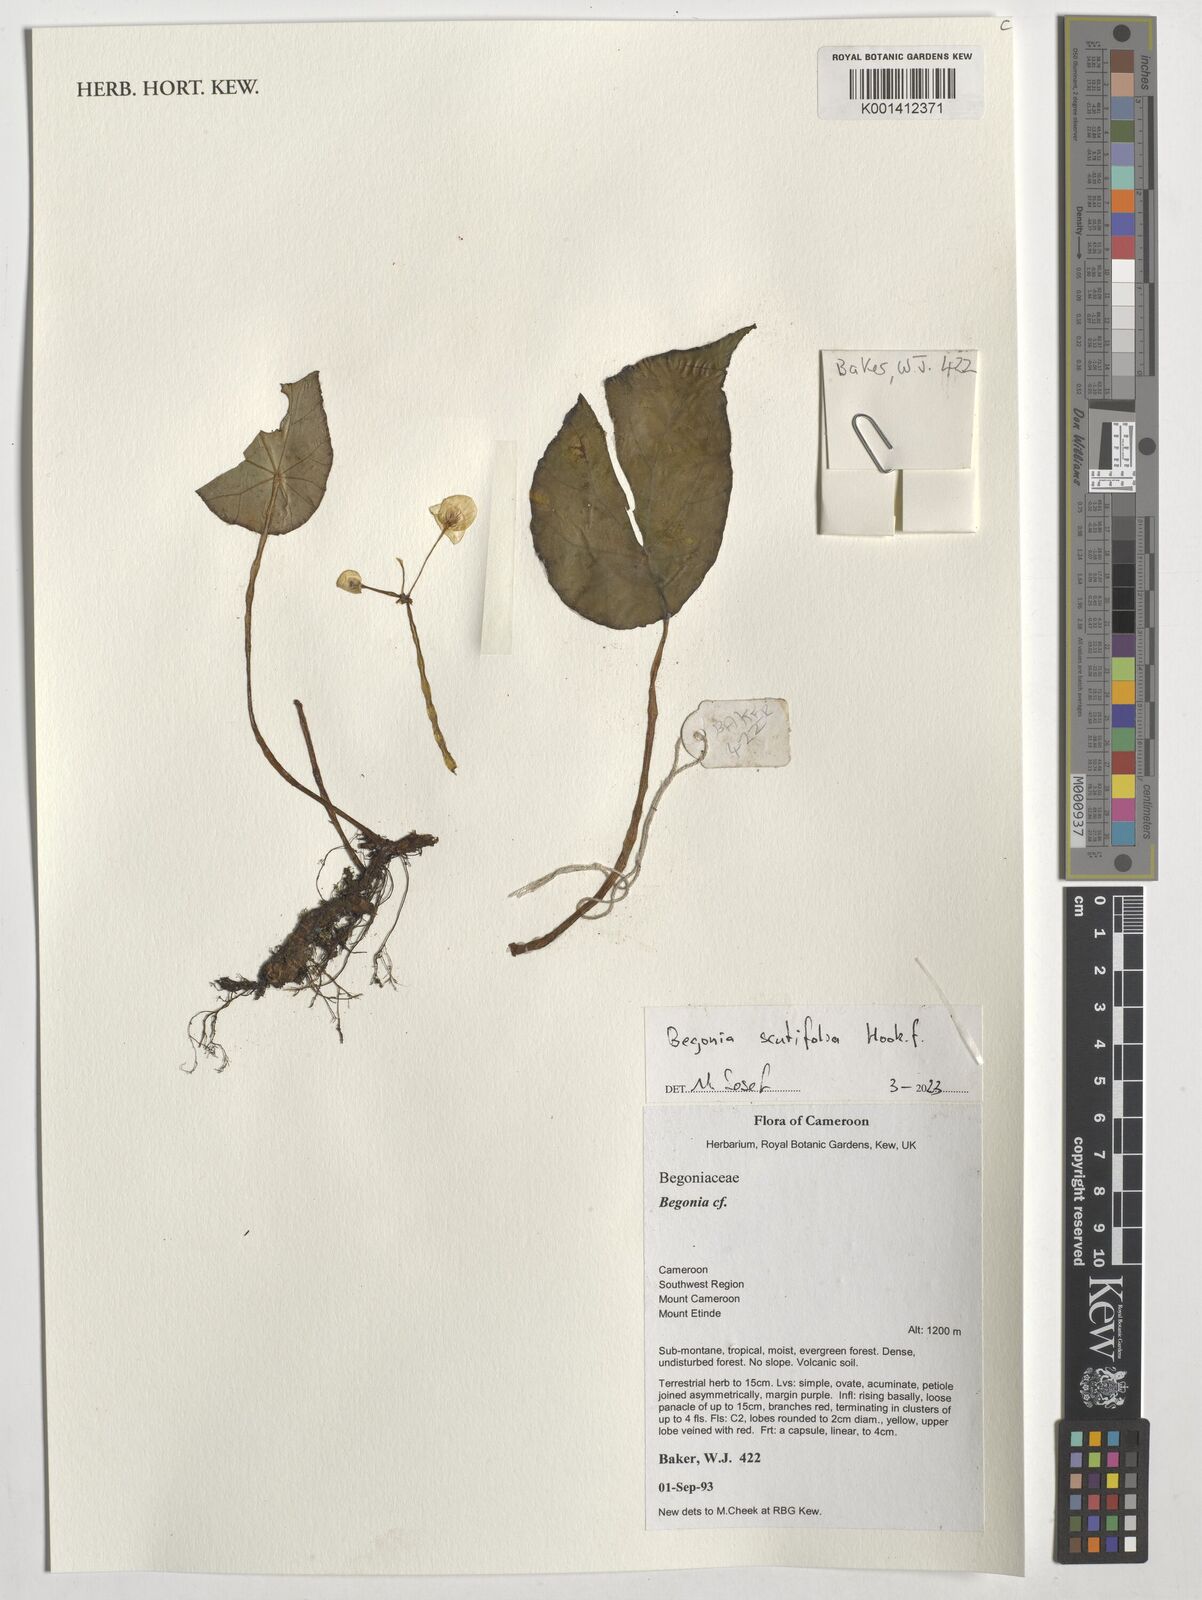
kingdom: Plantae
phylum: Tracheophyta
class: Magnoliopsida
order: Cucurbitales
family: Begoniaceae
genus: Begonia
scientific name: Begonia scutifolia
